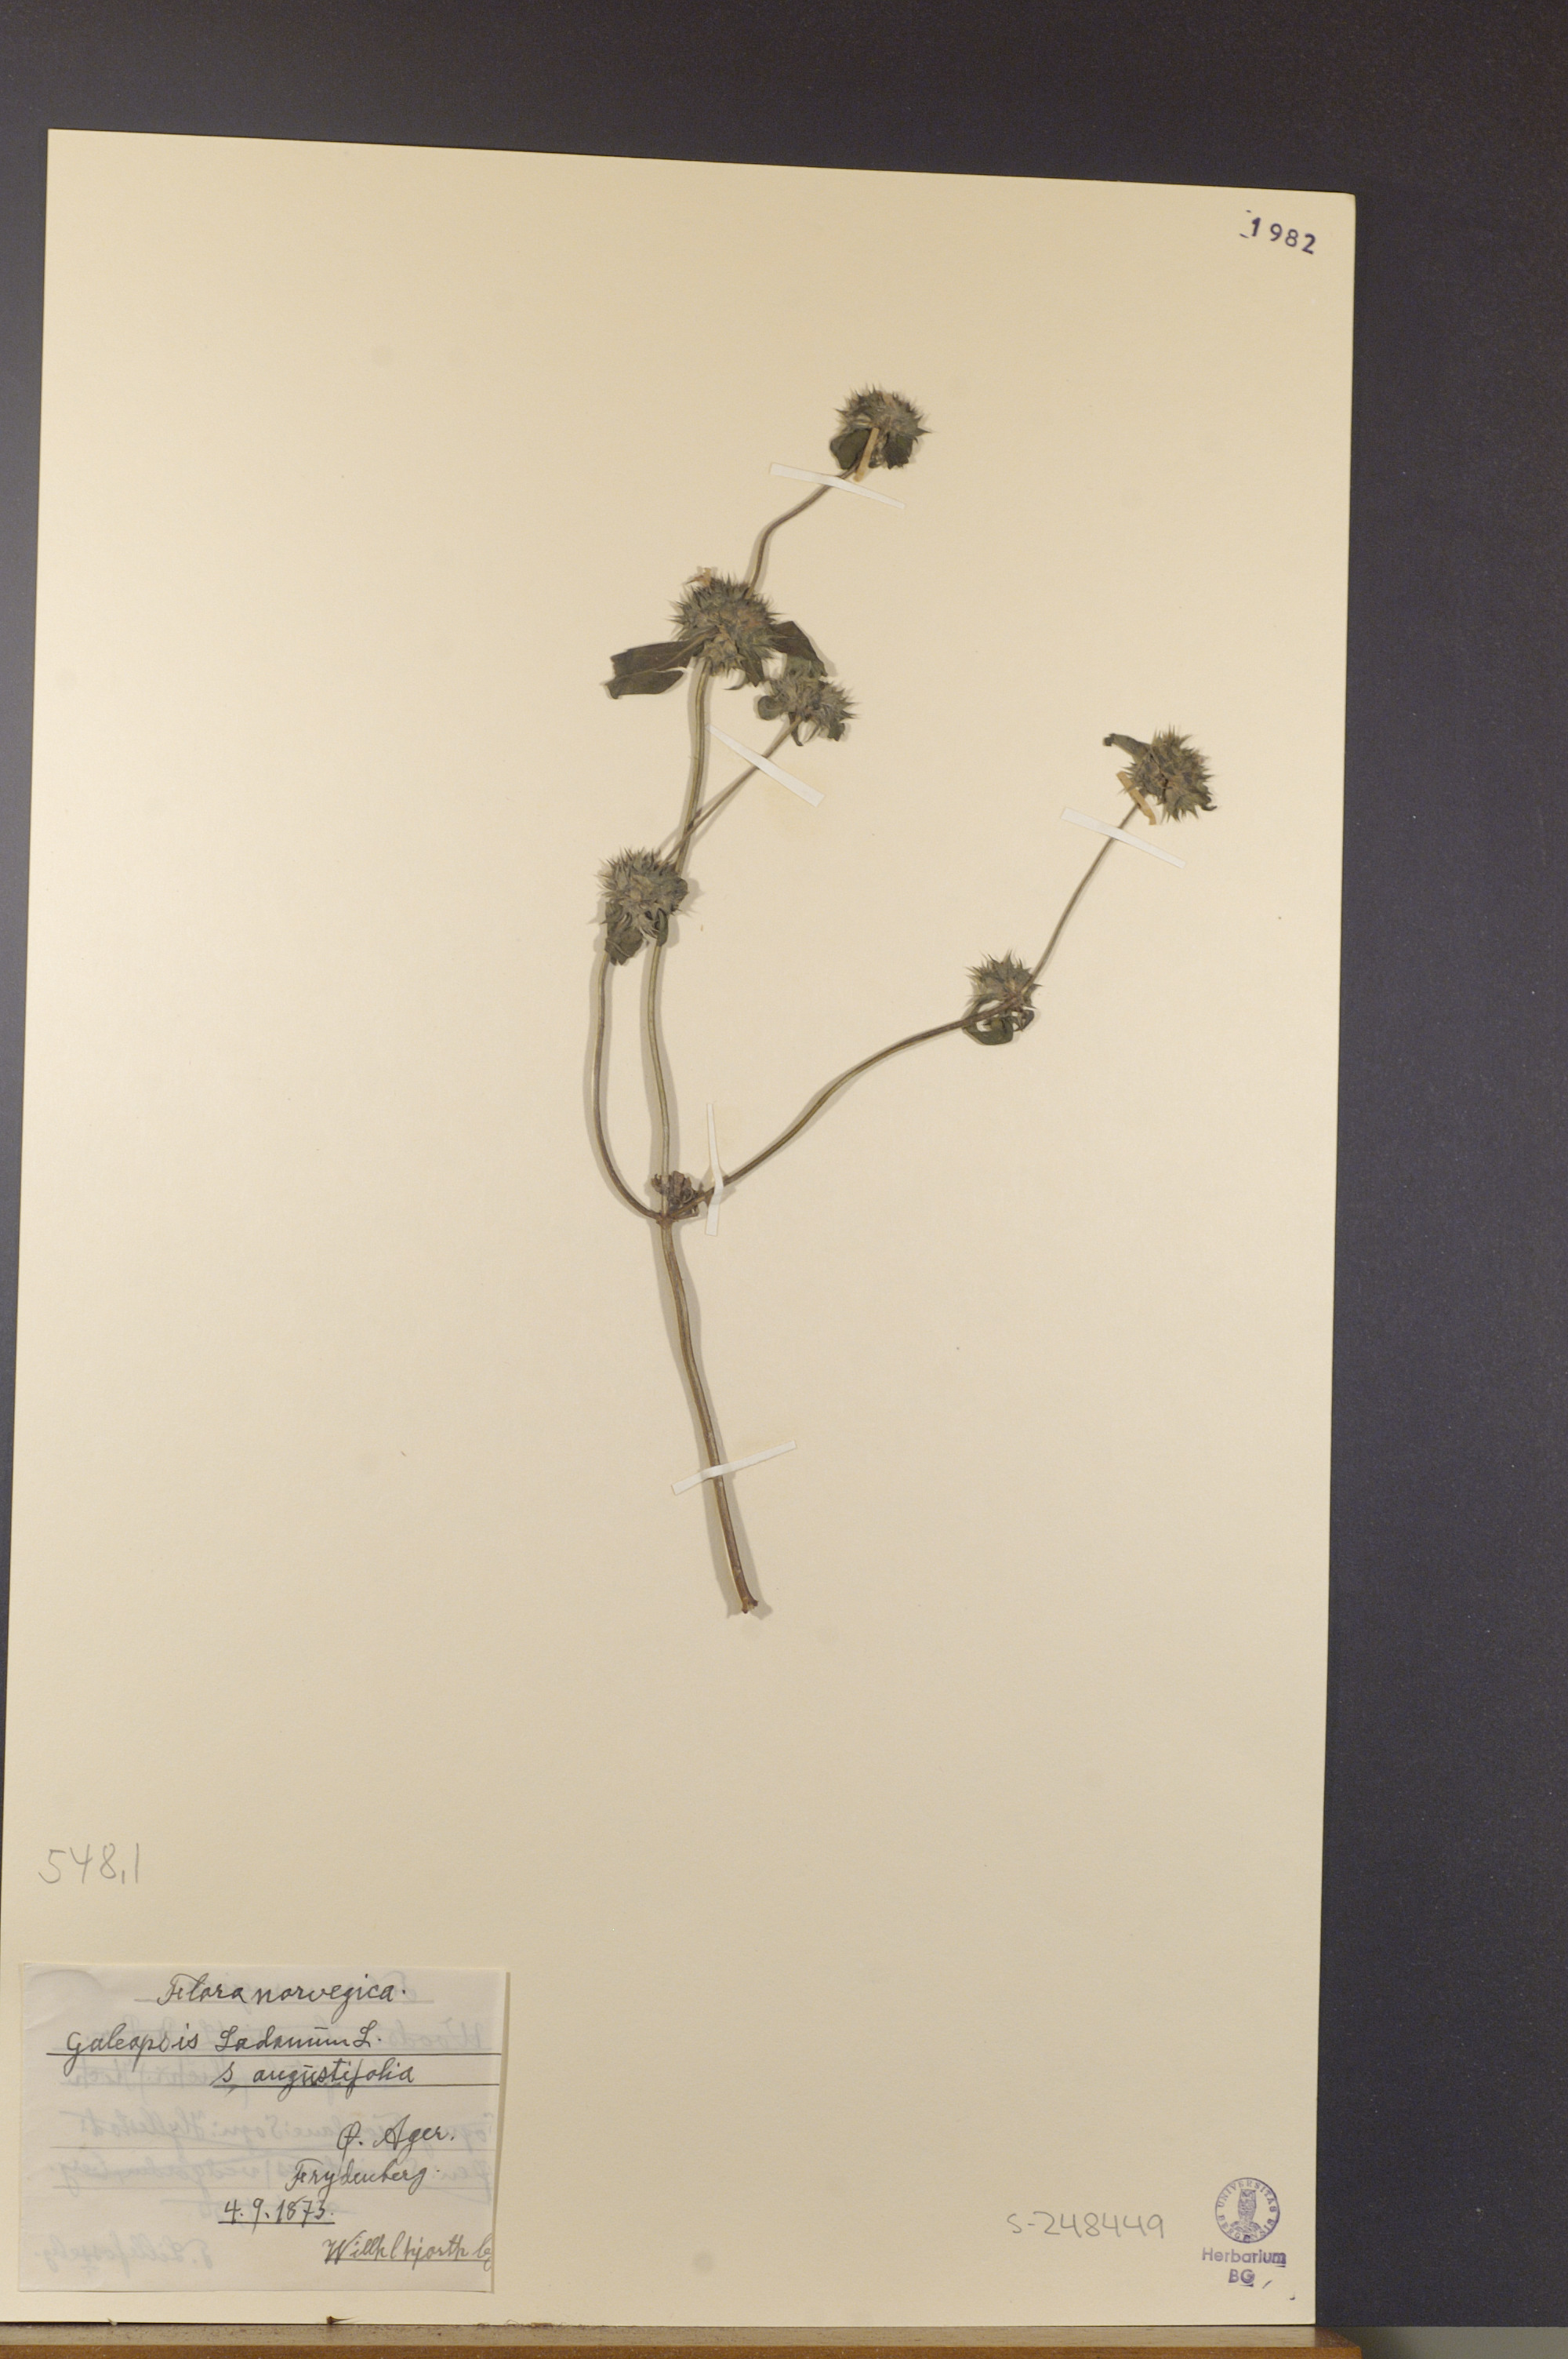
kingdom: Plantae
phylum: Tracheophyta
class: Magnoliopsida
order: Lamiales
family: Lamiaceae
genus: Galeopsis
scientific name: Galeopsis angustifolia
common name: Red hemp-nettle
